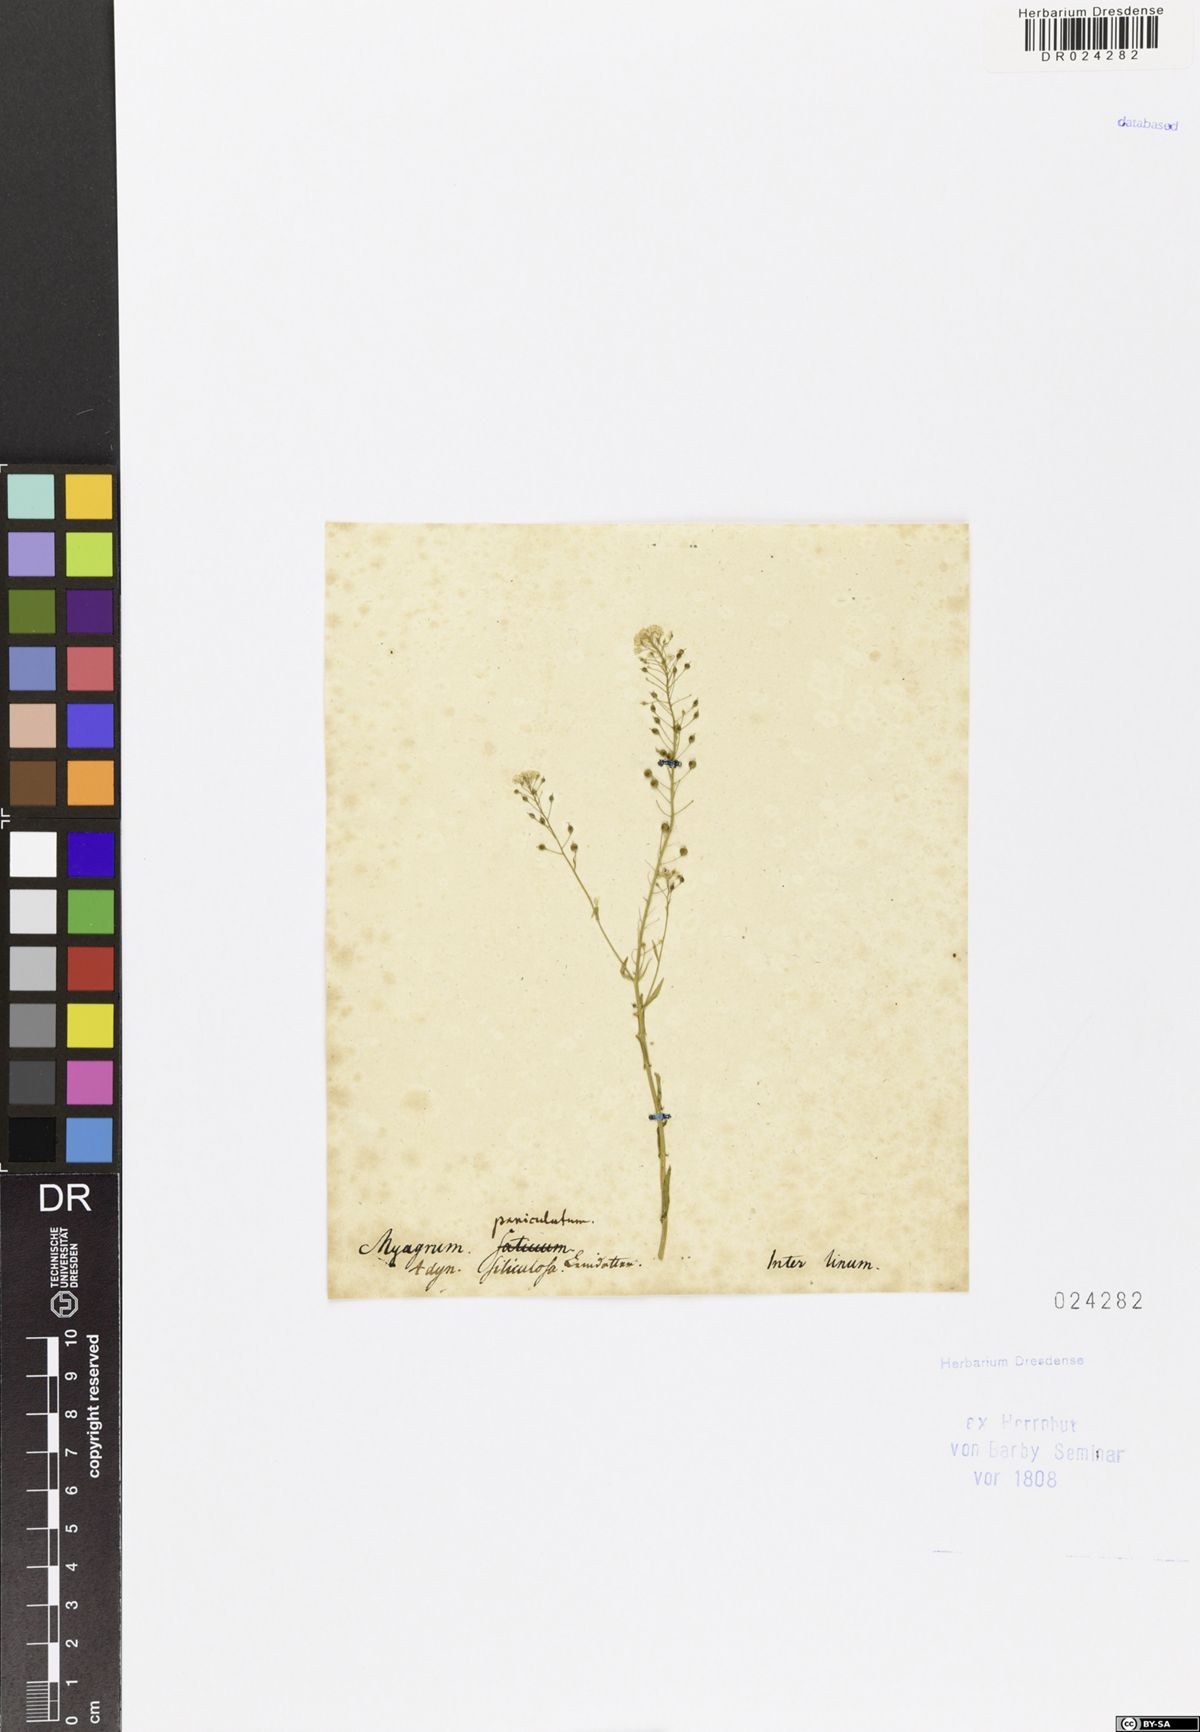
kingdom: Plantae
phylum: Tracheophyta
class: Magnoliopsida
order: Brassicales
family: Brassicaceae
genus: Neslia
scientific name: Neslia paniculata
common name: Ball mustard
